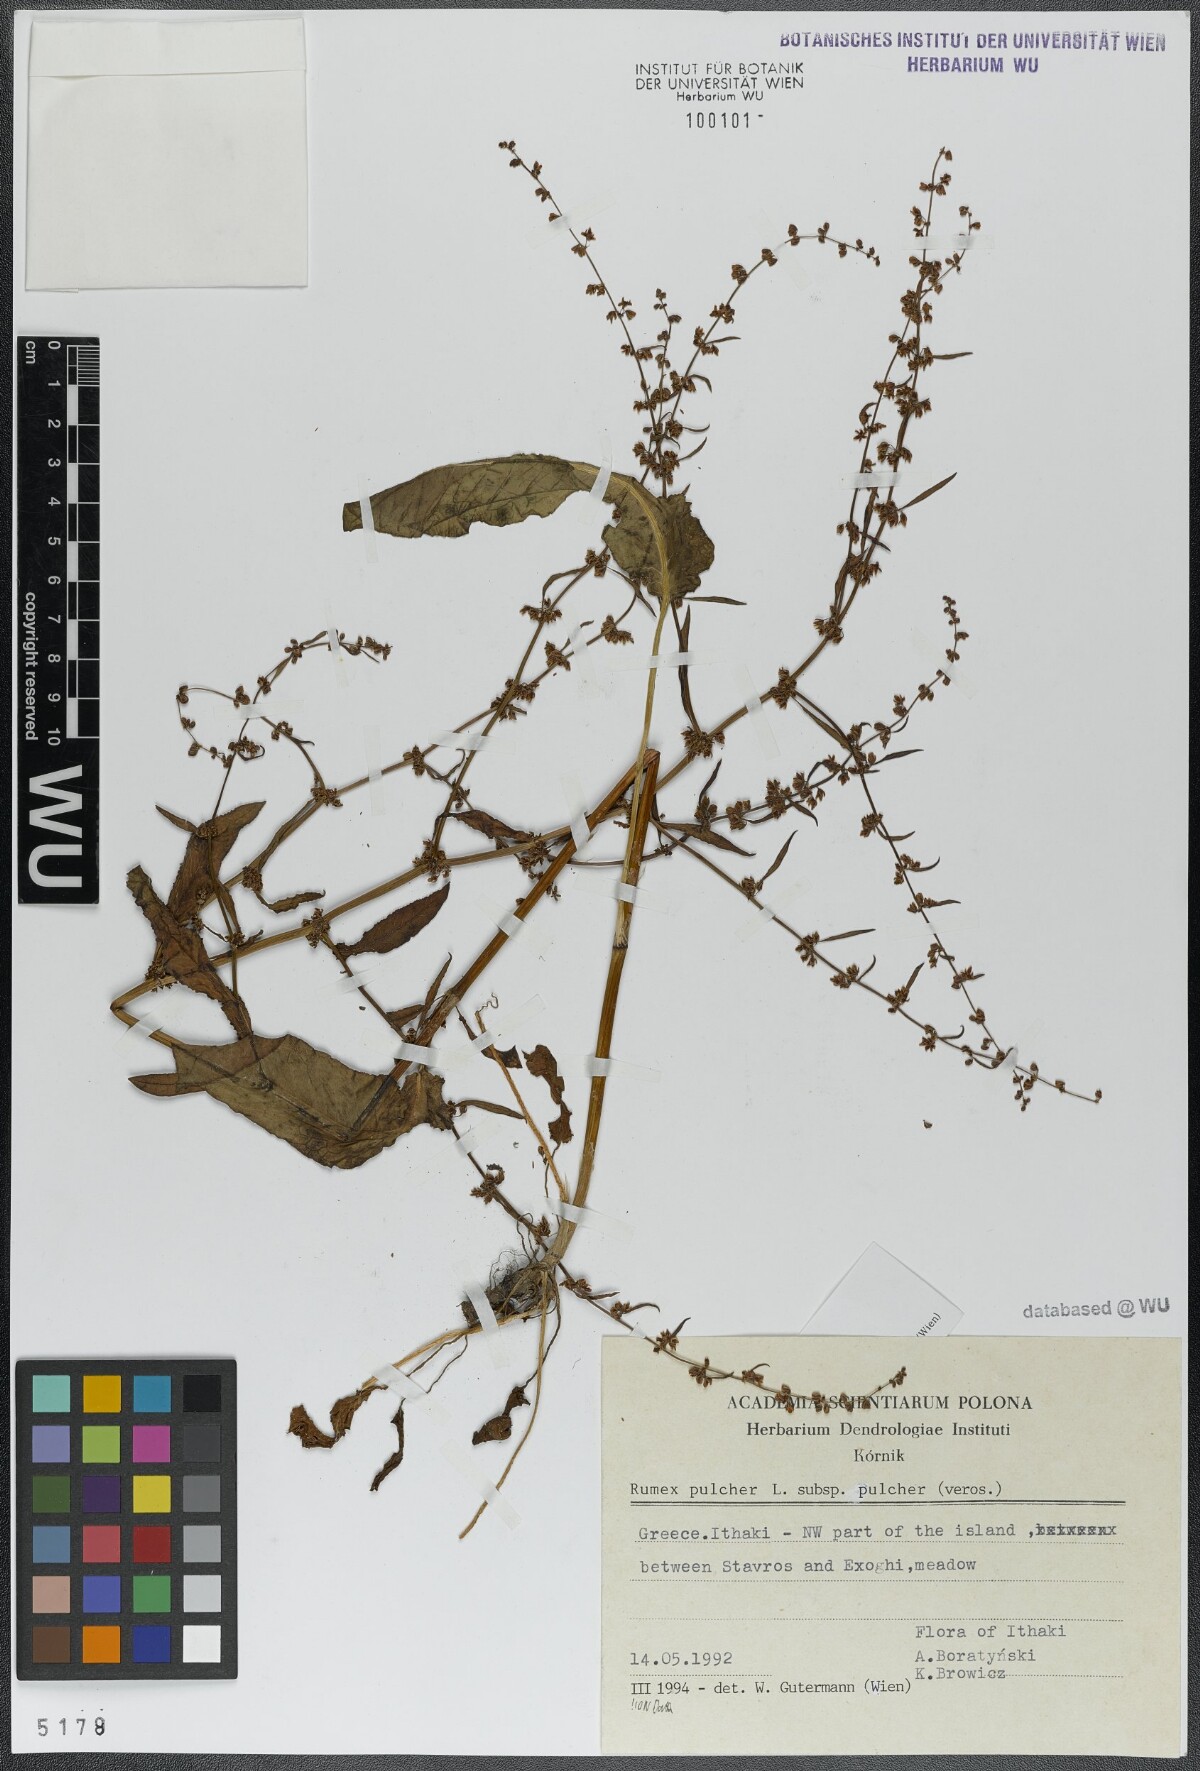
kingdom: Plantae
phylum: Tracheophyta
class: Magnoliopsida
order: Caryophyllales
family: Polygonaceae
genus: Rumex
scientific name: Rumex pulcher
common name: Fiddle dock
